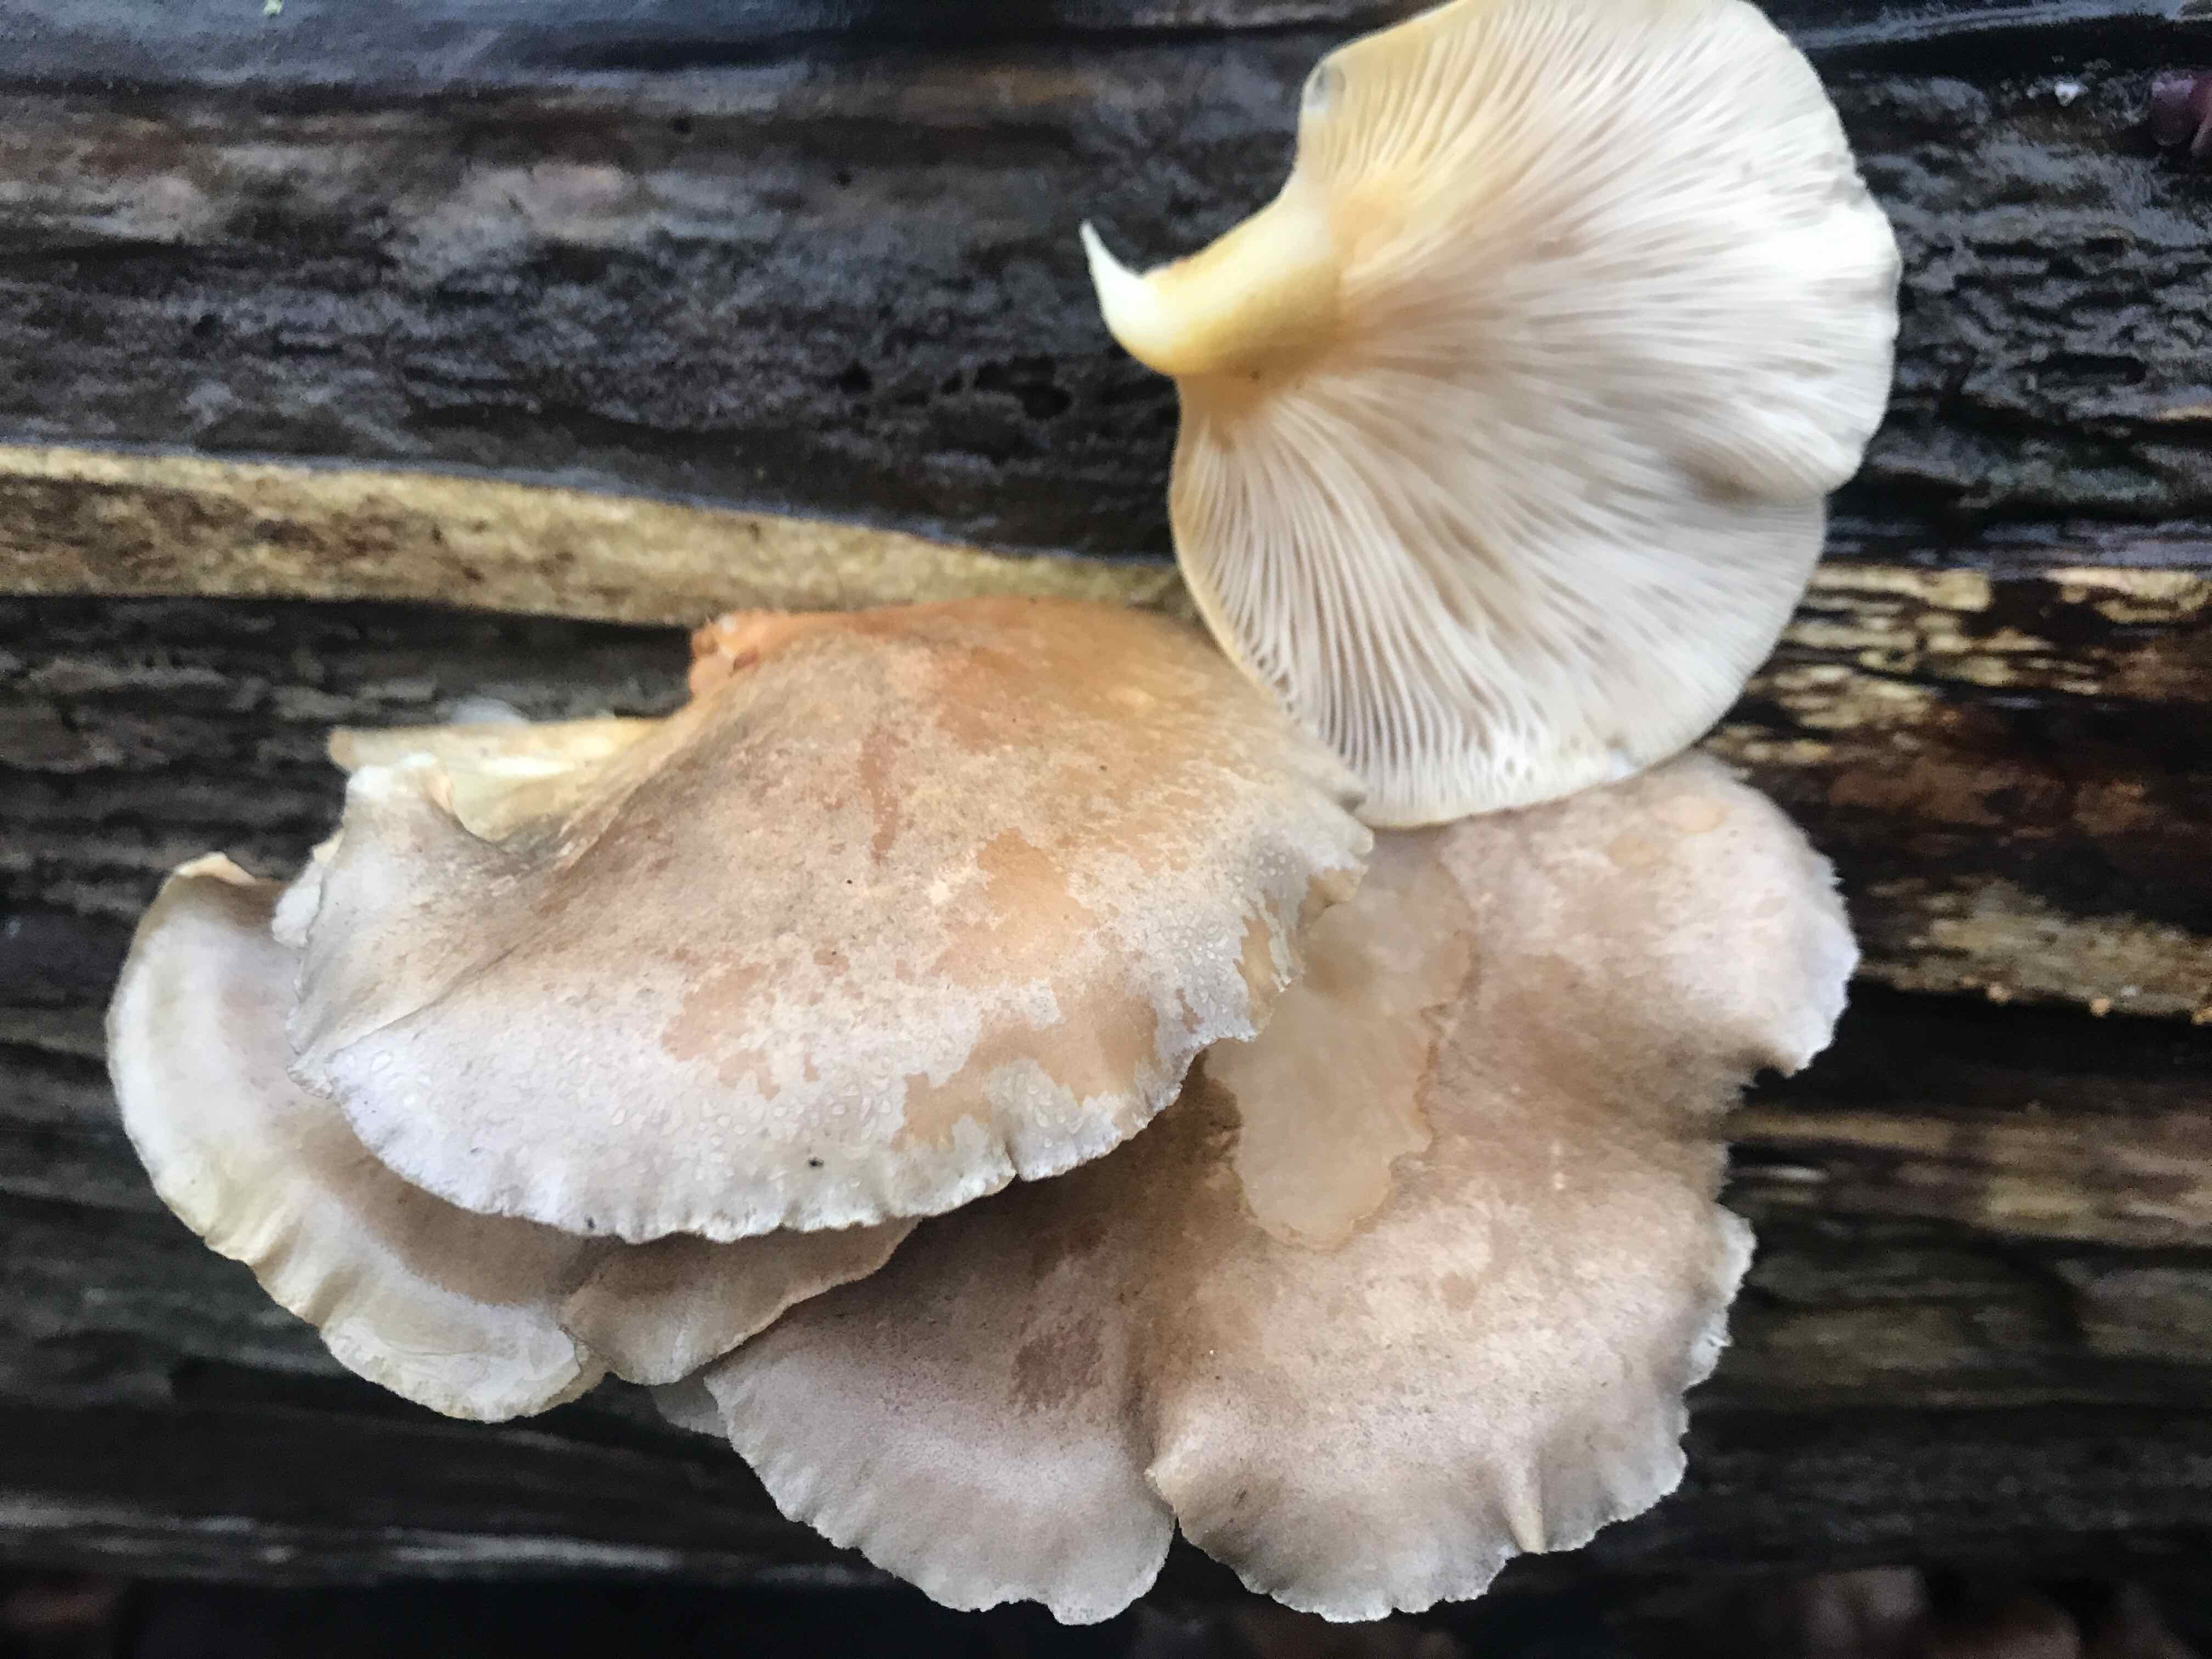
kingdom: Fungi
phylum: Basidiomycota
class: Agaricomycetes
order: Agaricales
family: Sarcomyxaceae
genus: Sarcomyxa
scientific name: Sarcomyxa serotina
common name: gummihat
